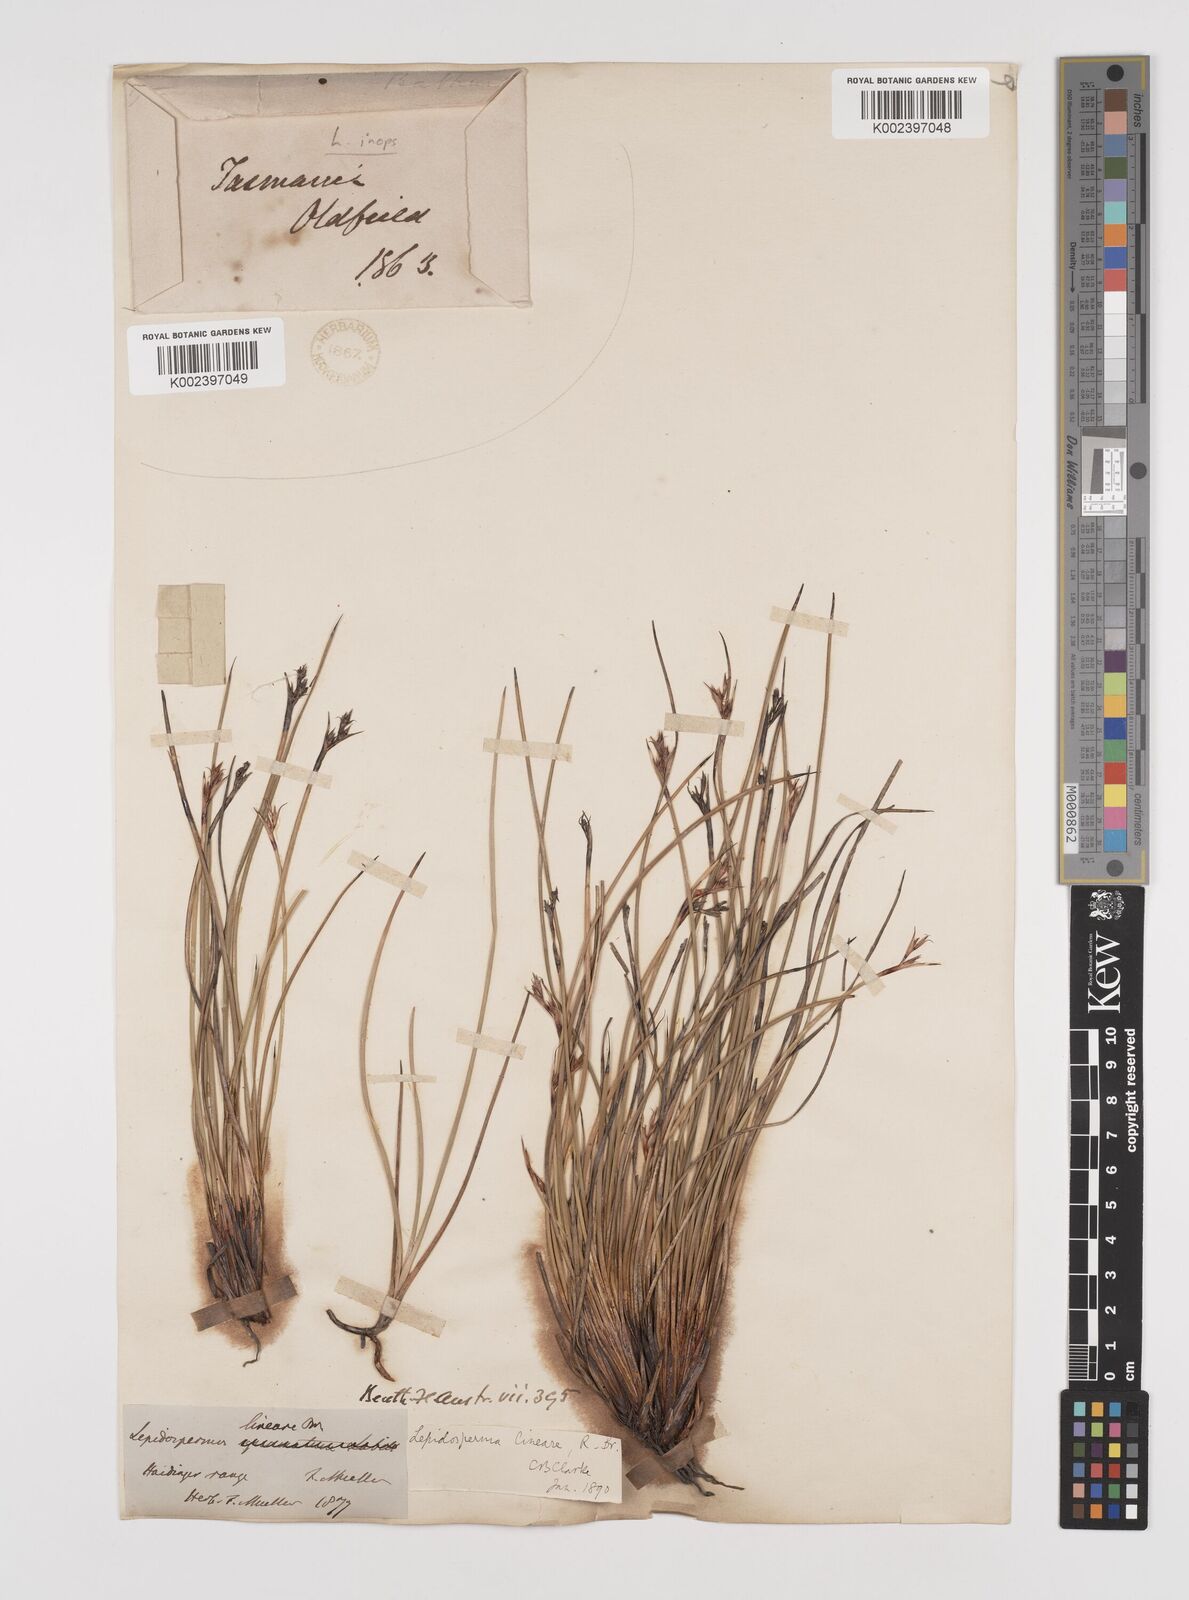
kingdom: Plantae
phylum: Tracheophyta
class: Liliopsida
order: Poales
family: Cyperaceae
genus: Lepidosperma
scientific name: Lepidosperma inops
